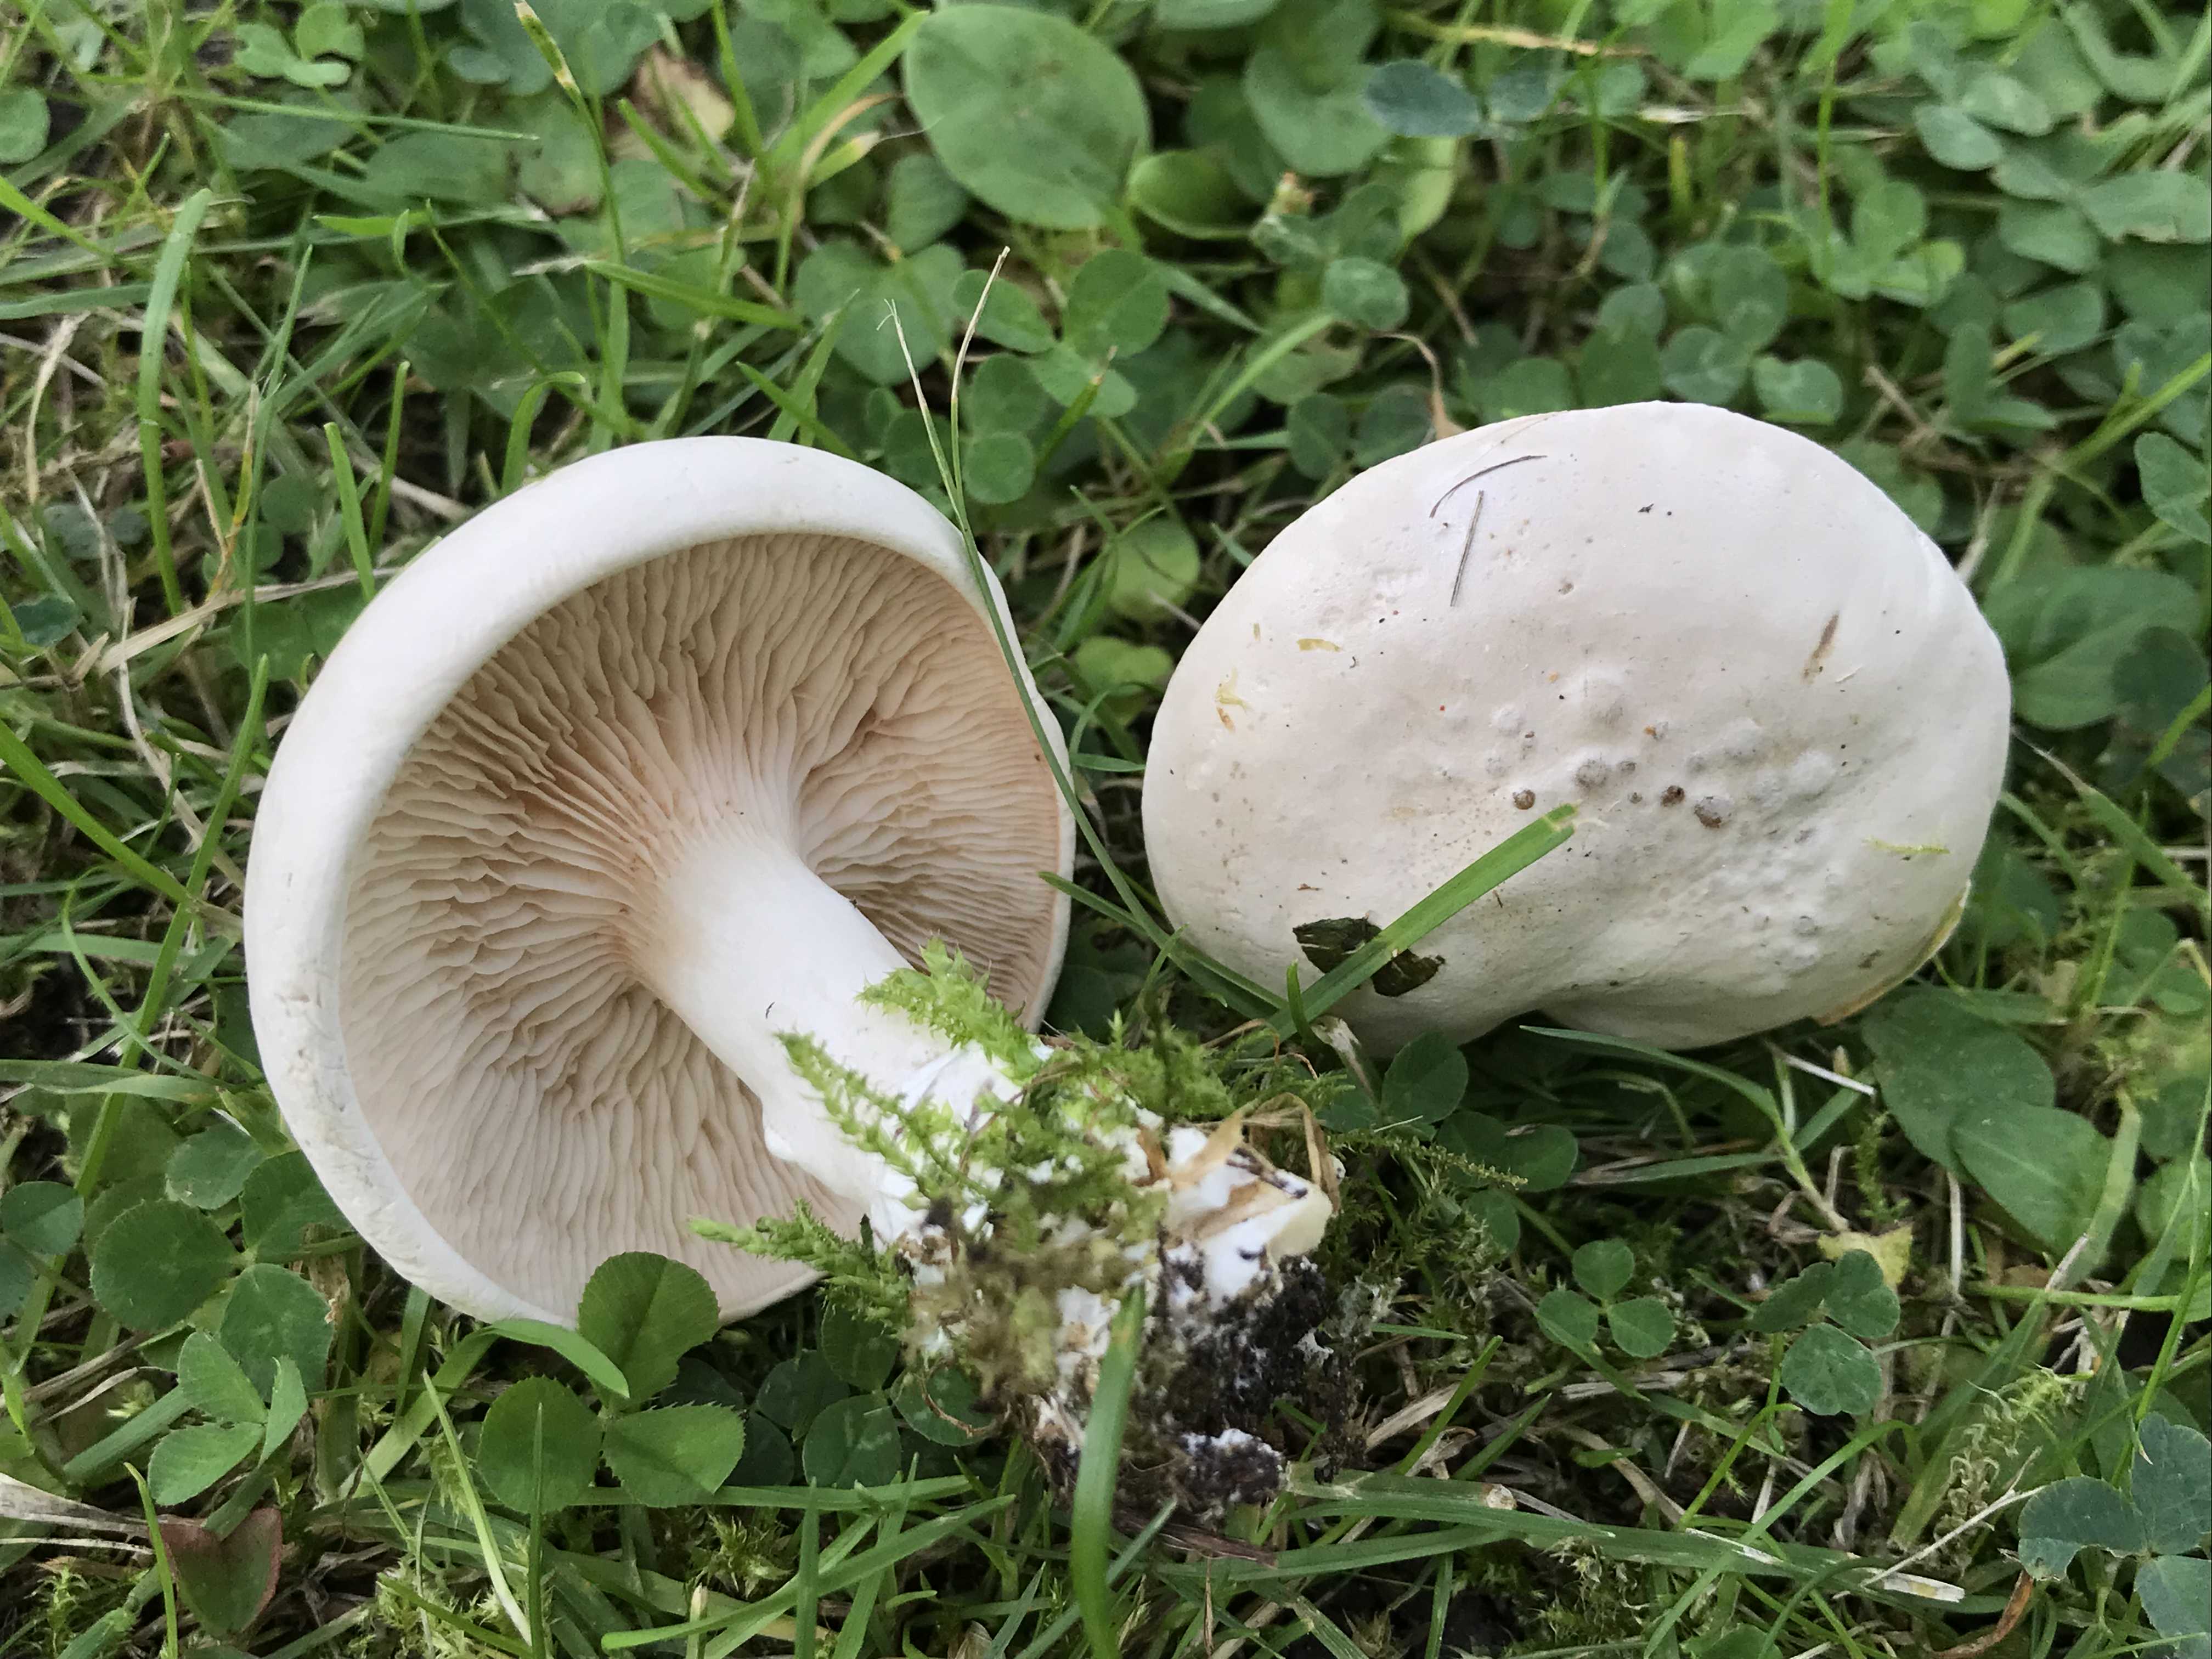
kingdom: Fungi
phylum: Basidiomycota
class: Agaricomycetes
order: Agaricales
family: Entolomataceae
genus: Clitopilus
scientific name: Clitopilus prunulus
